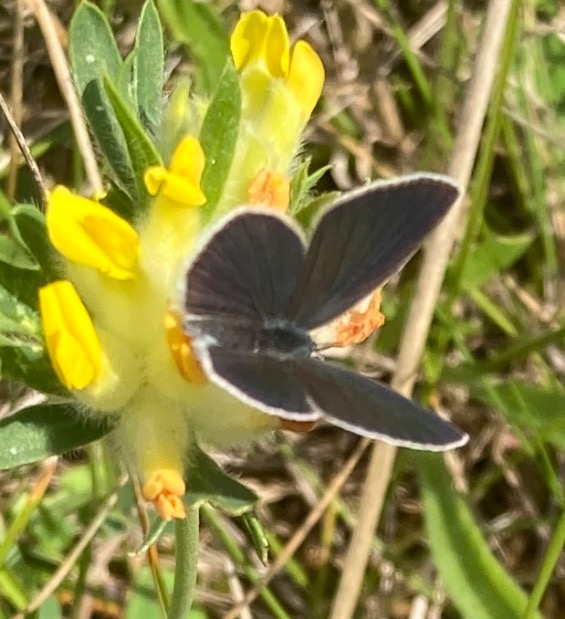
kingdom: Animalia
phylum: Arthropoda
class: Insecta
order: Lepidoptera
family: Lycaenidae
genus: Cupido
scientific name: Cupido minimus
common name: Dværgblåfugl
